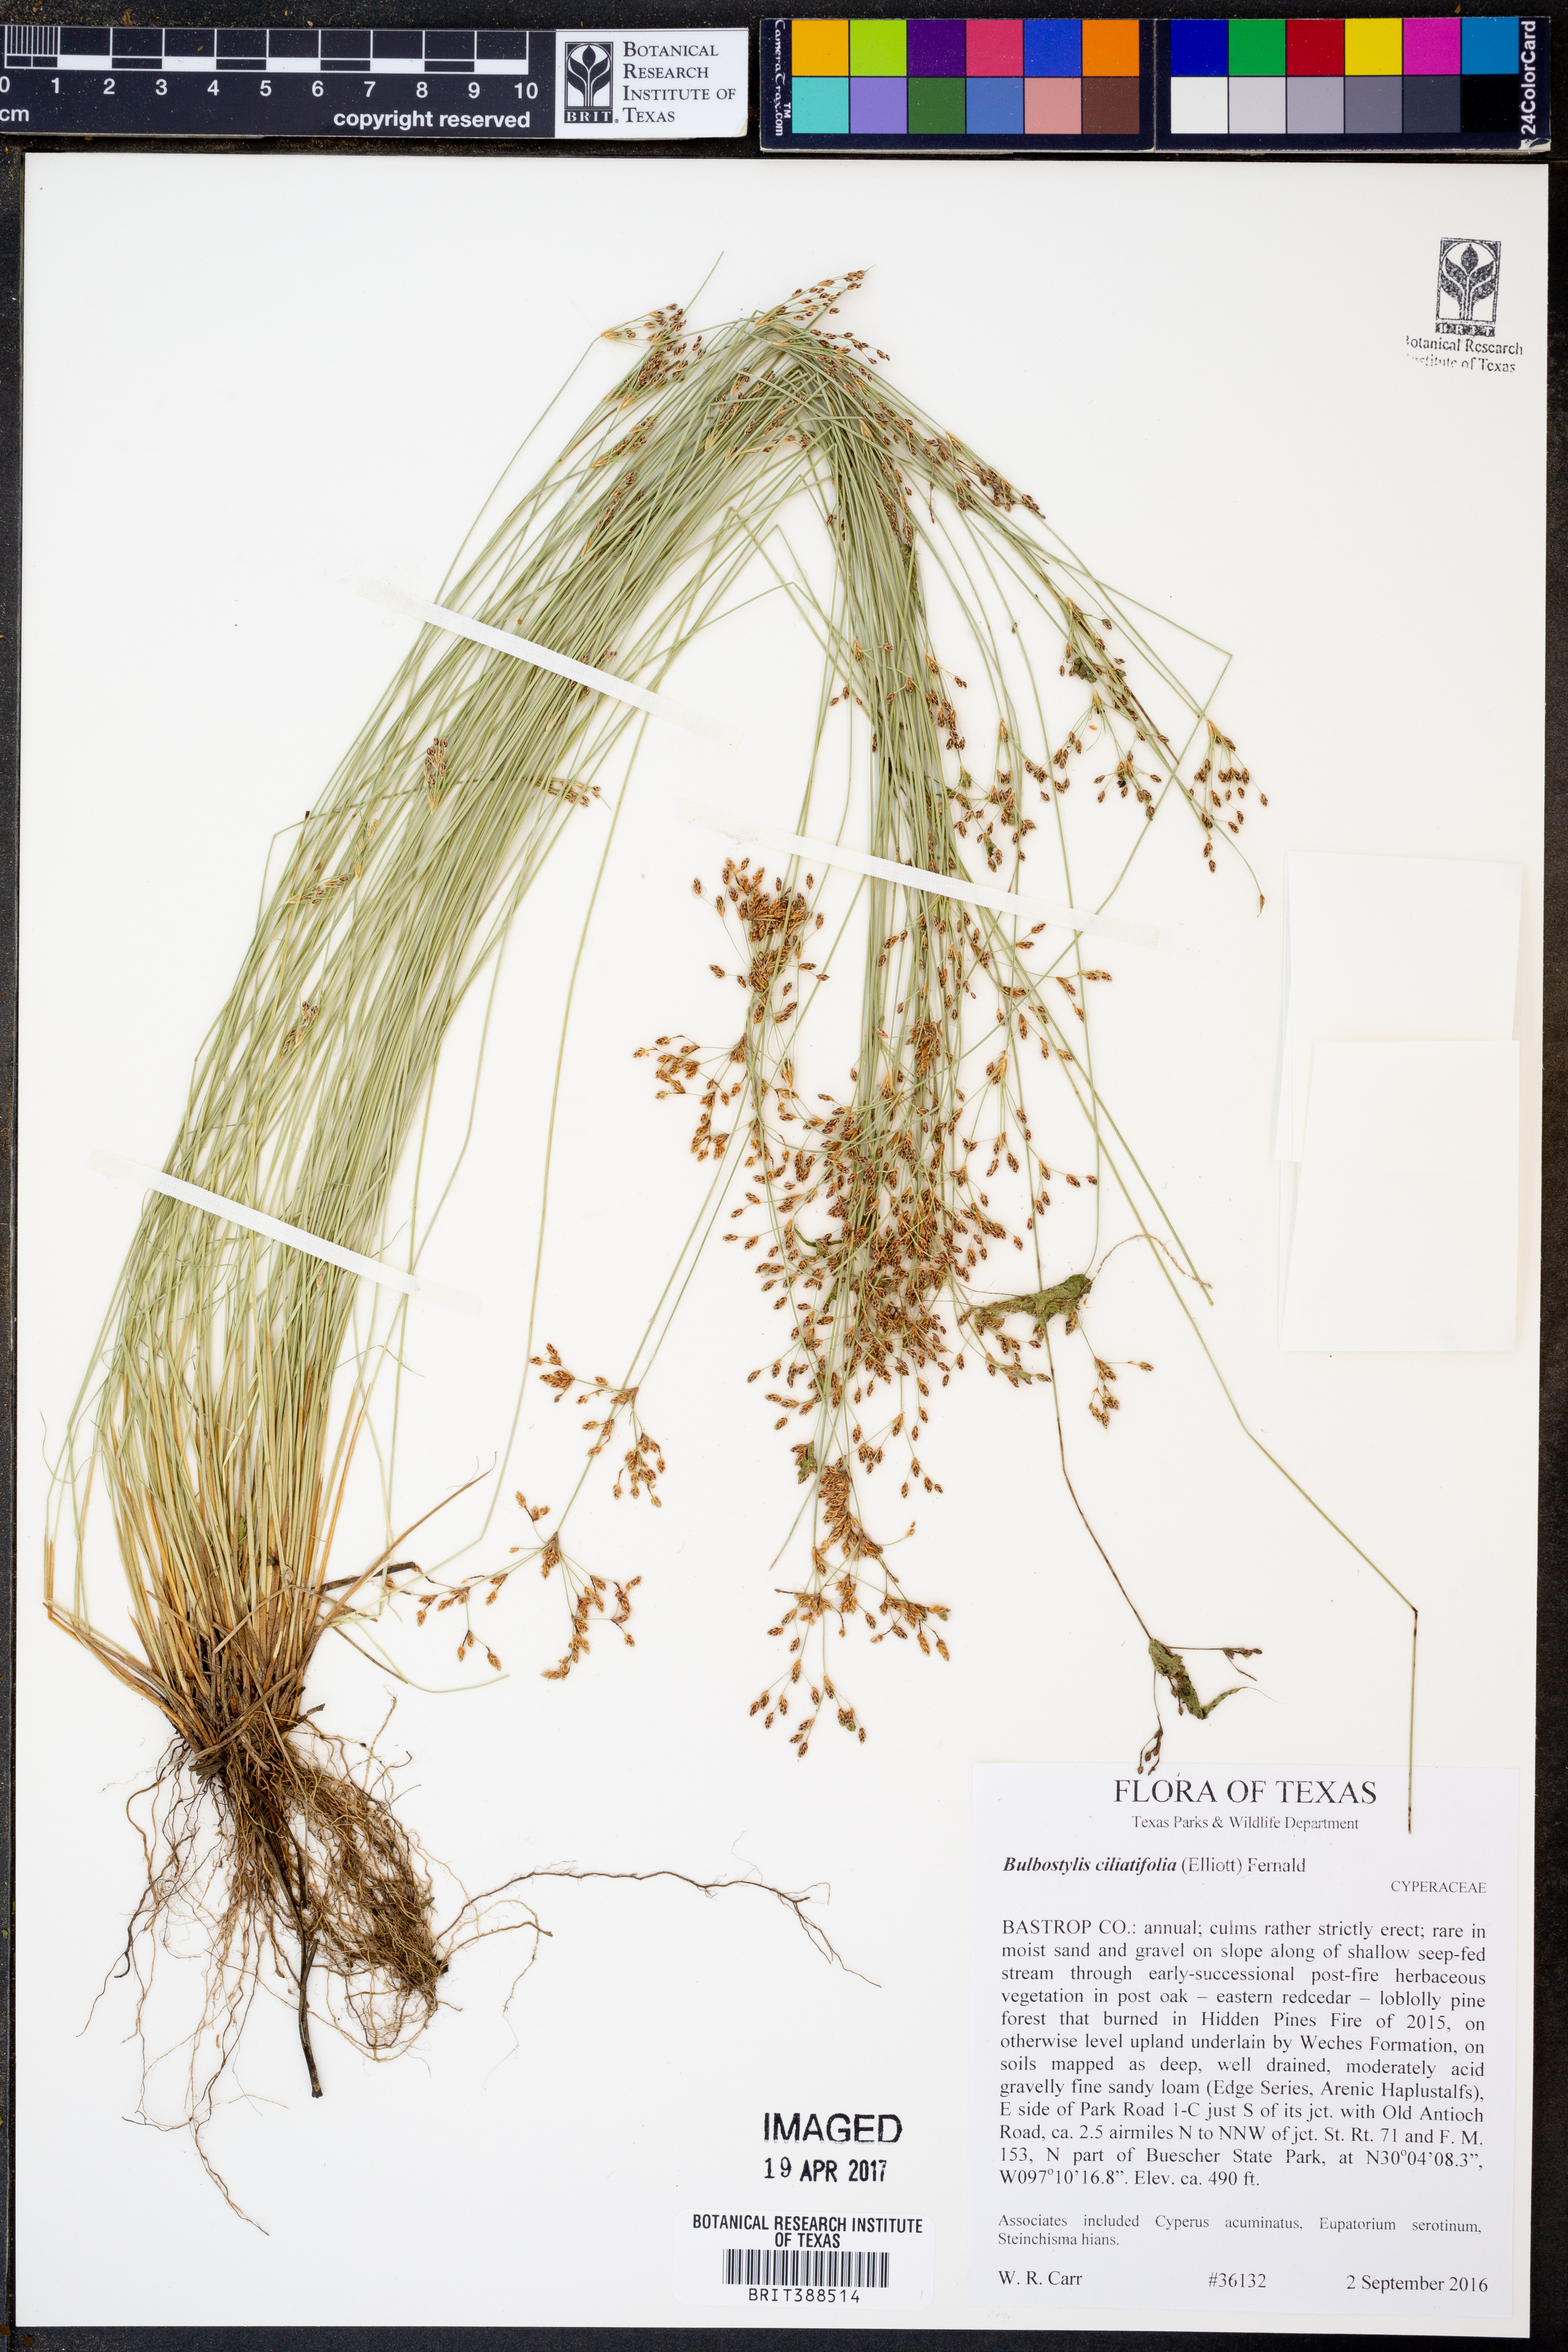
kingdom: Plantae
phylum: Tracheophyta
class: Liliopsida
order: Poales
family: Cyperaceae
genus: Bulbostylis
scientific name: Bulbostylis ciliatifolia
